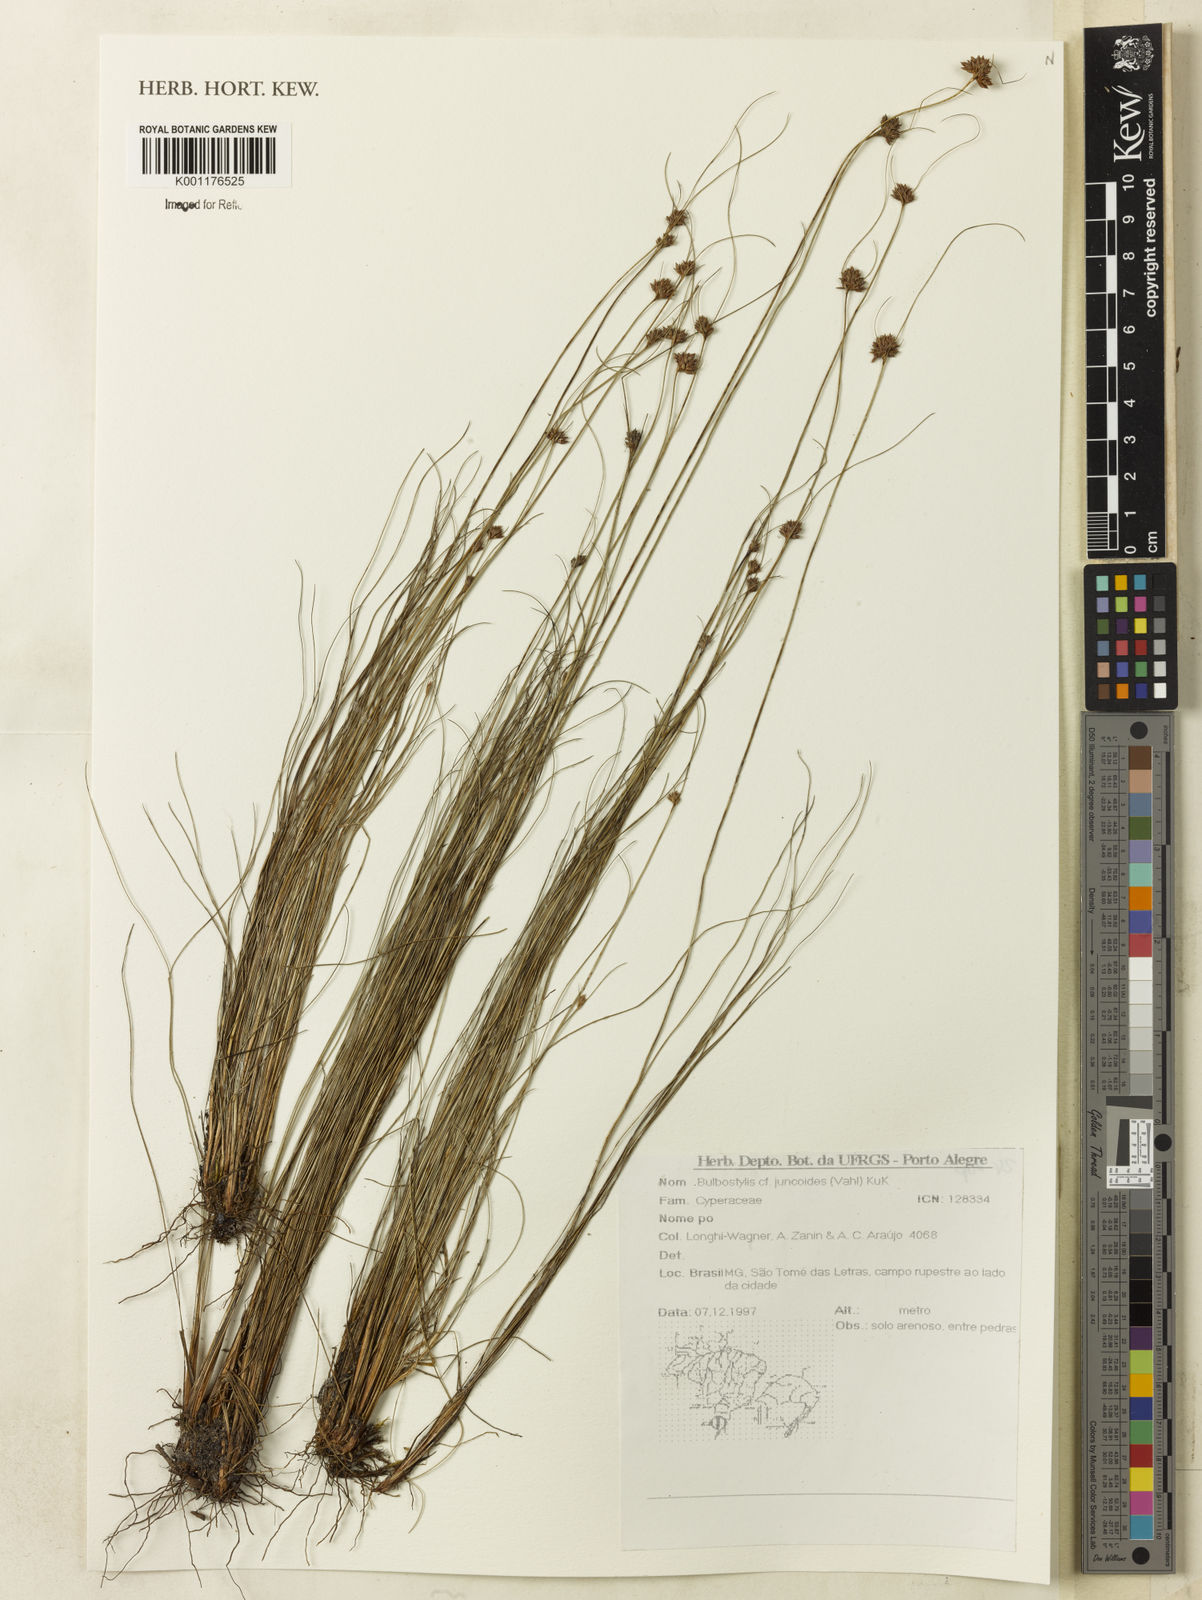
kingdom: Plantae
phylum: Tracheophyta
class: Liliopsida
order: Poales
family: Cyperaceae
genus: Bulbostylis
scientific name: Bulbostylis juncoides
